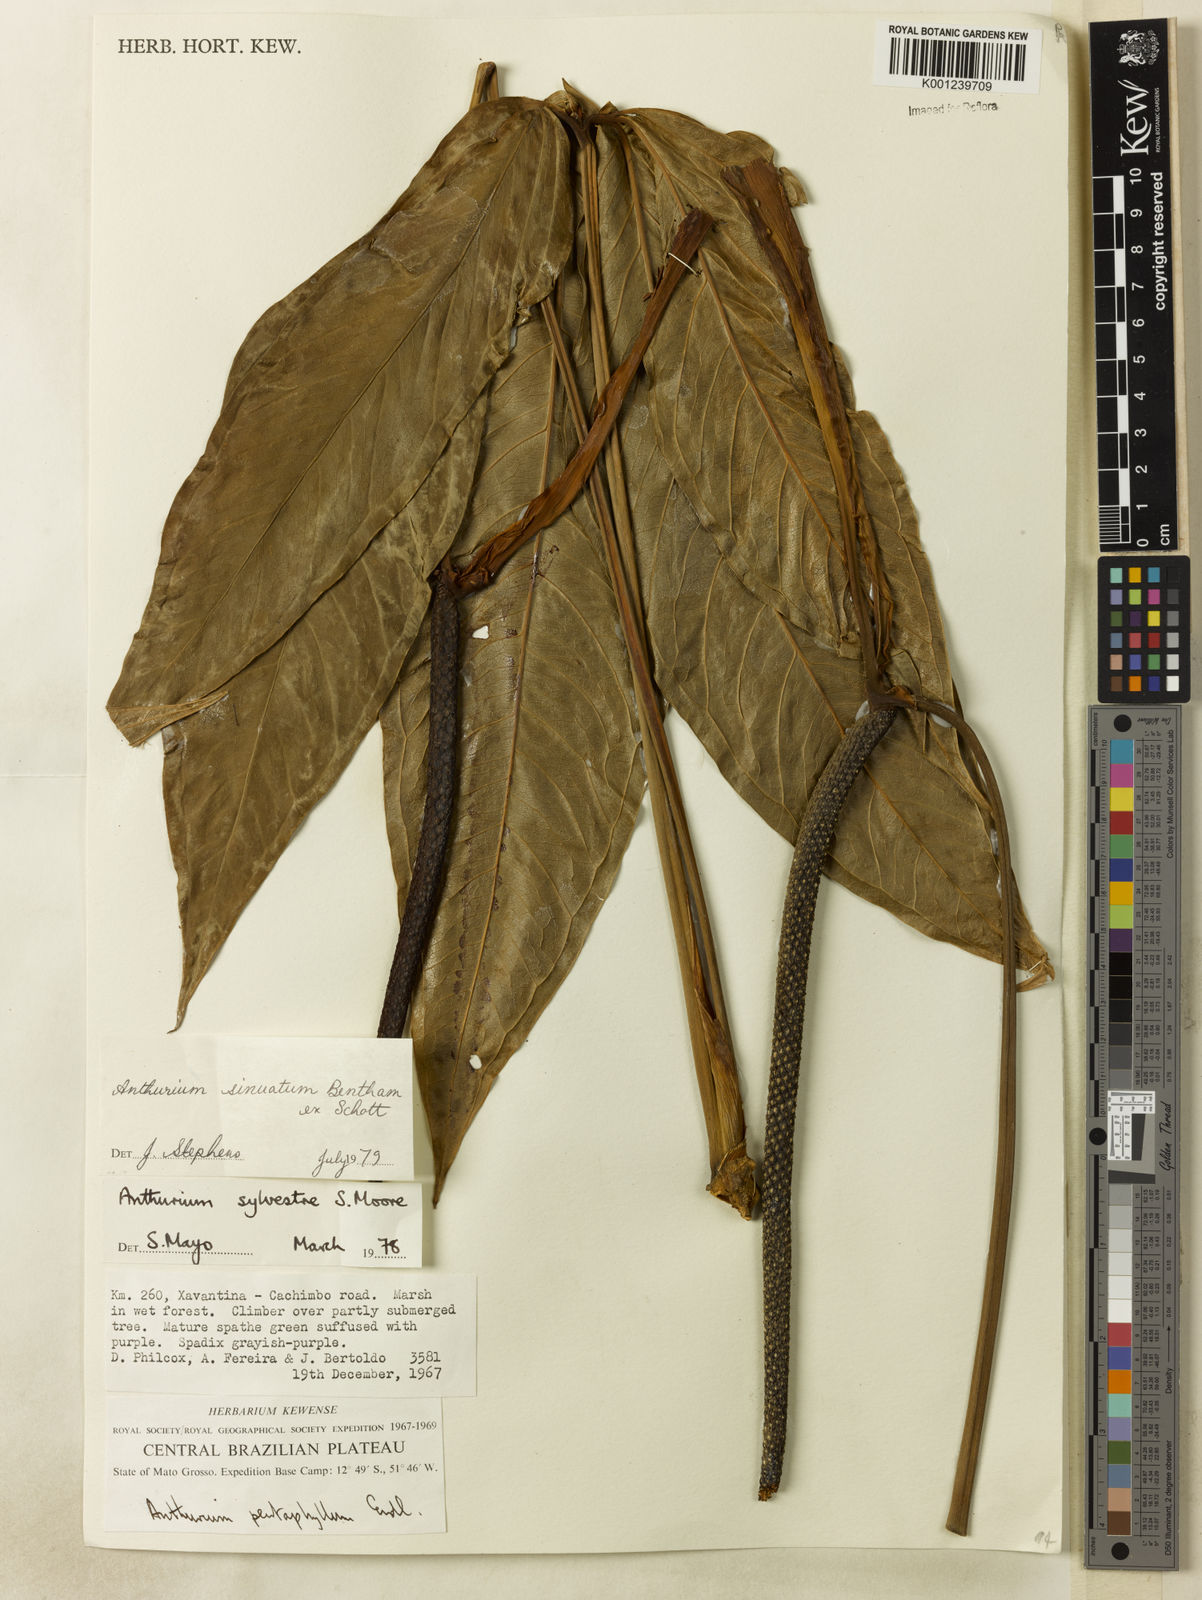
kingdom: Plantae
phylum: Tracheophyta
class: Liliopsida
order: Alismatales
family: Araceae
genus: Anthurium
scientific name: Anthurium sinuatum
